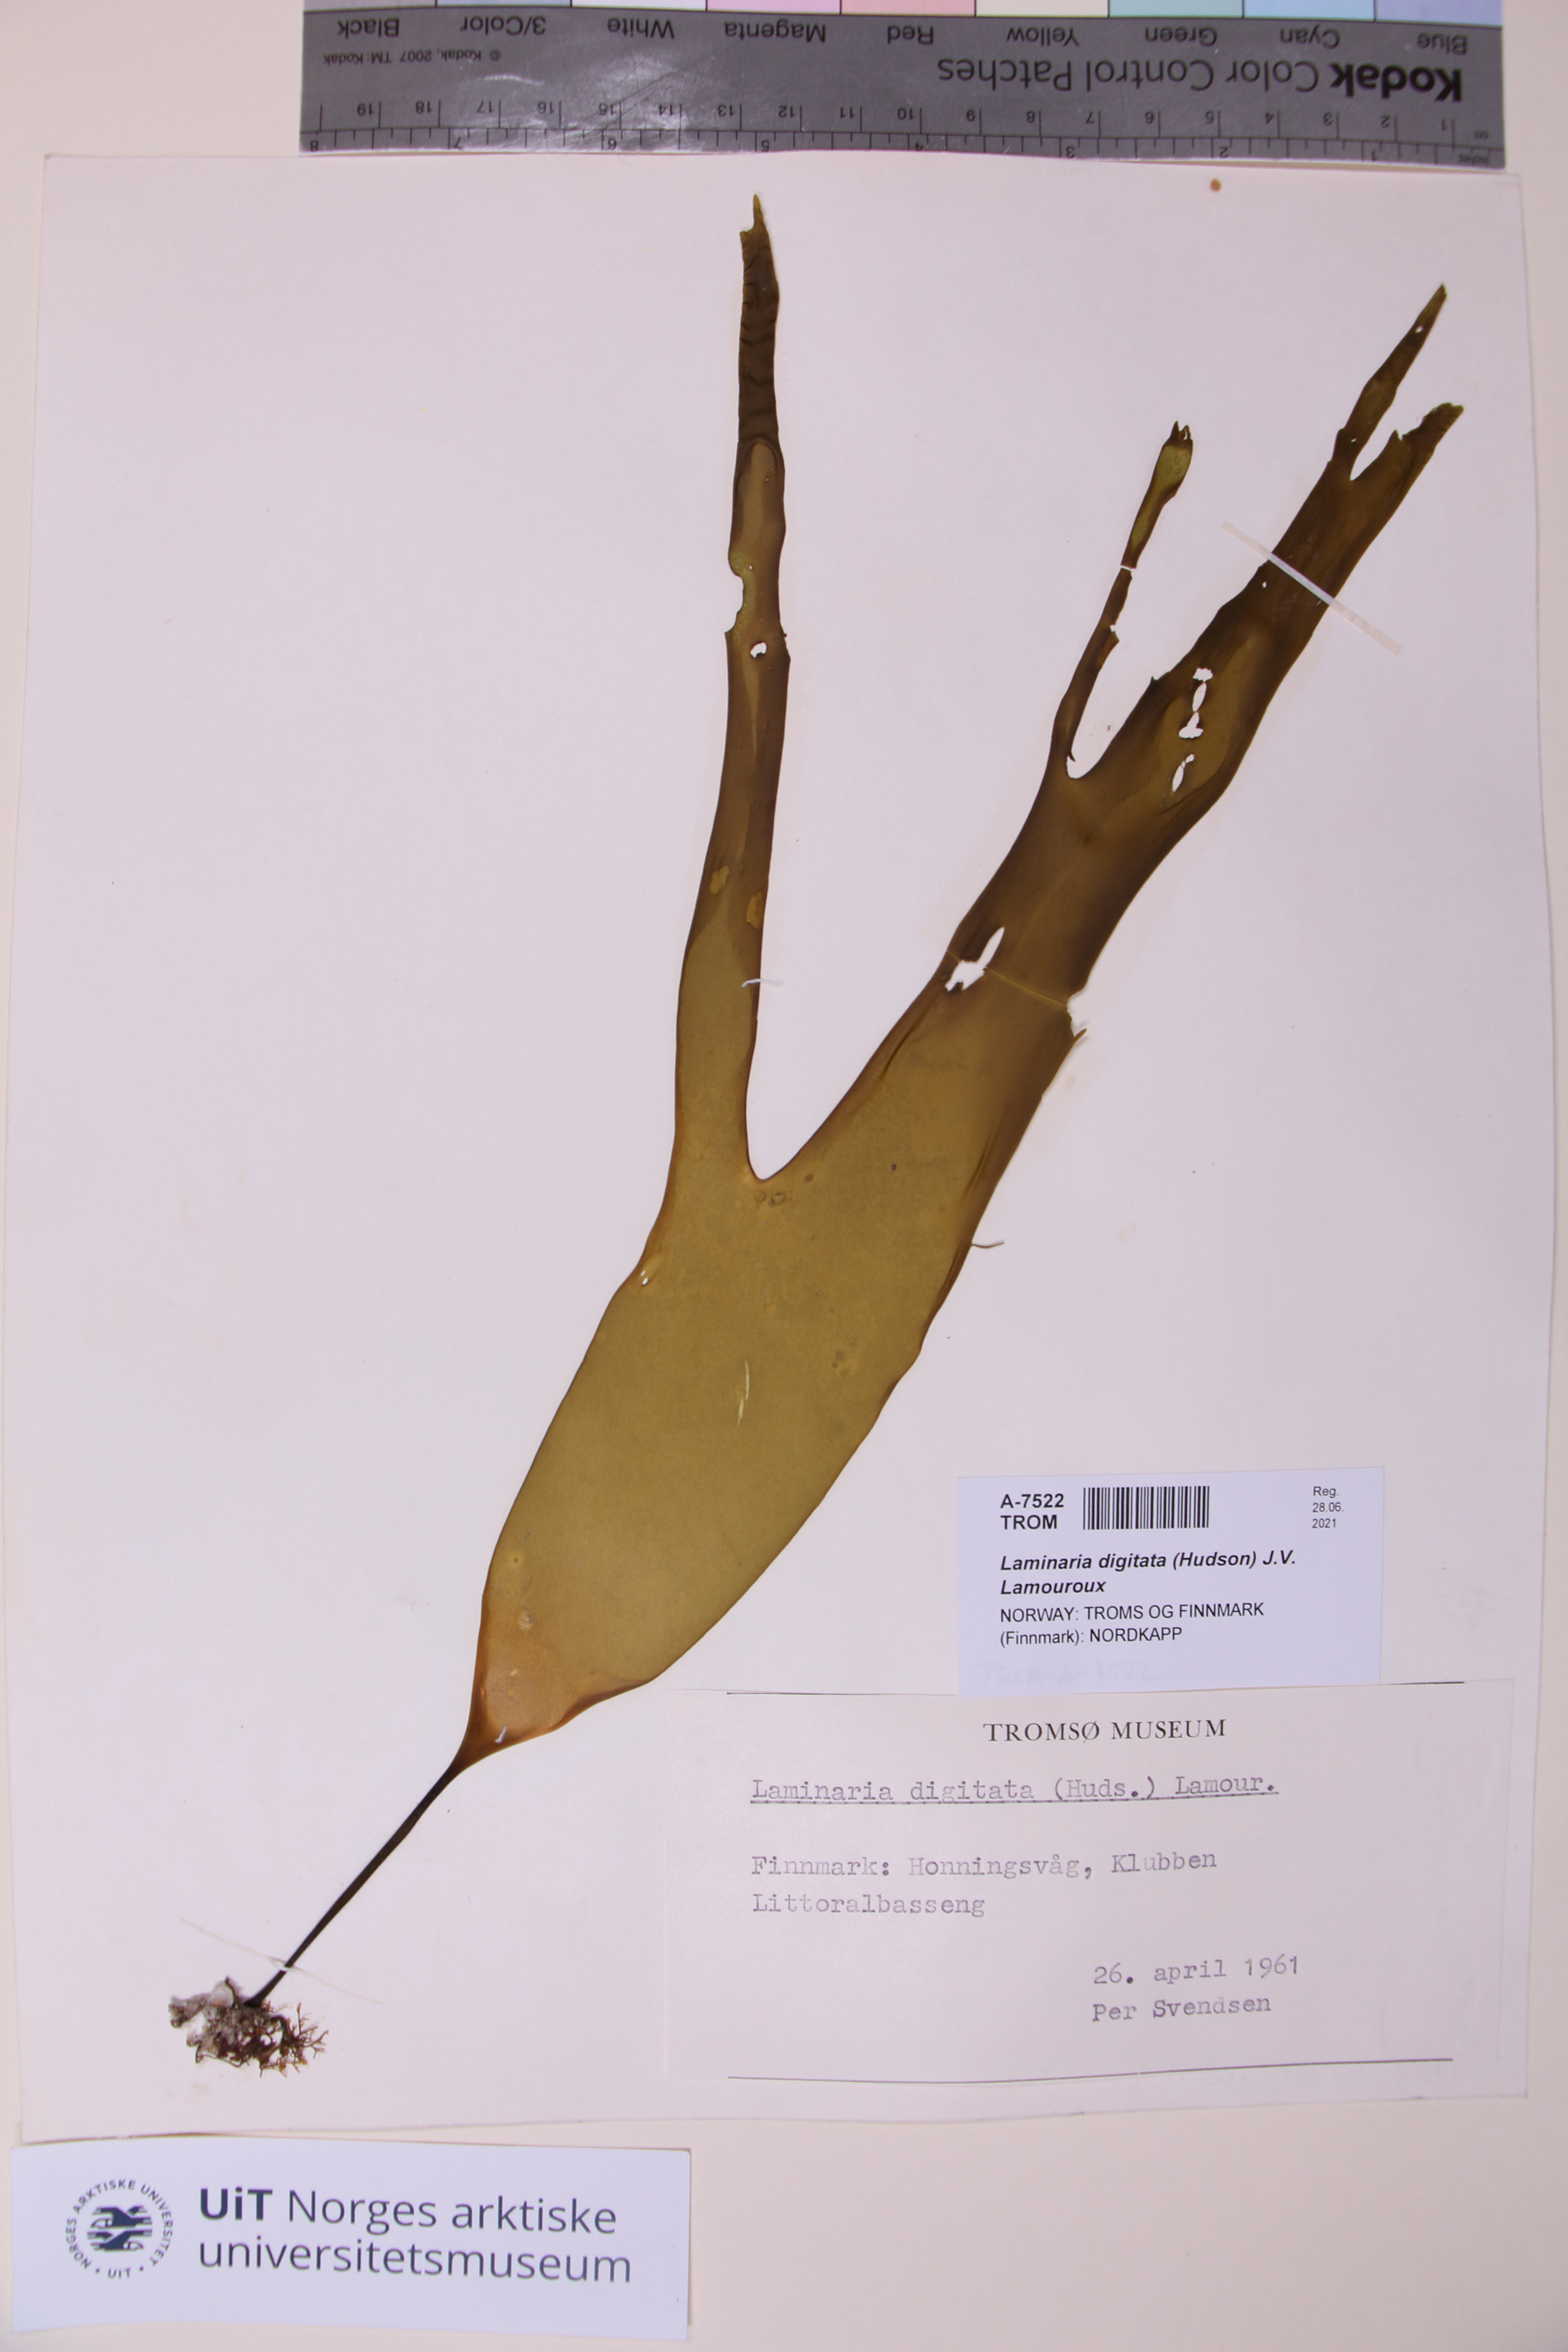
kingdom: Chromista
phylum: Ochrophyta
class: Phaeophyceae
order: Laminariales
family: Laminariaceae
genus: Laminaria
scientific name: Laminaria digitata
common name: Oarweed
